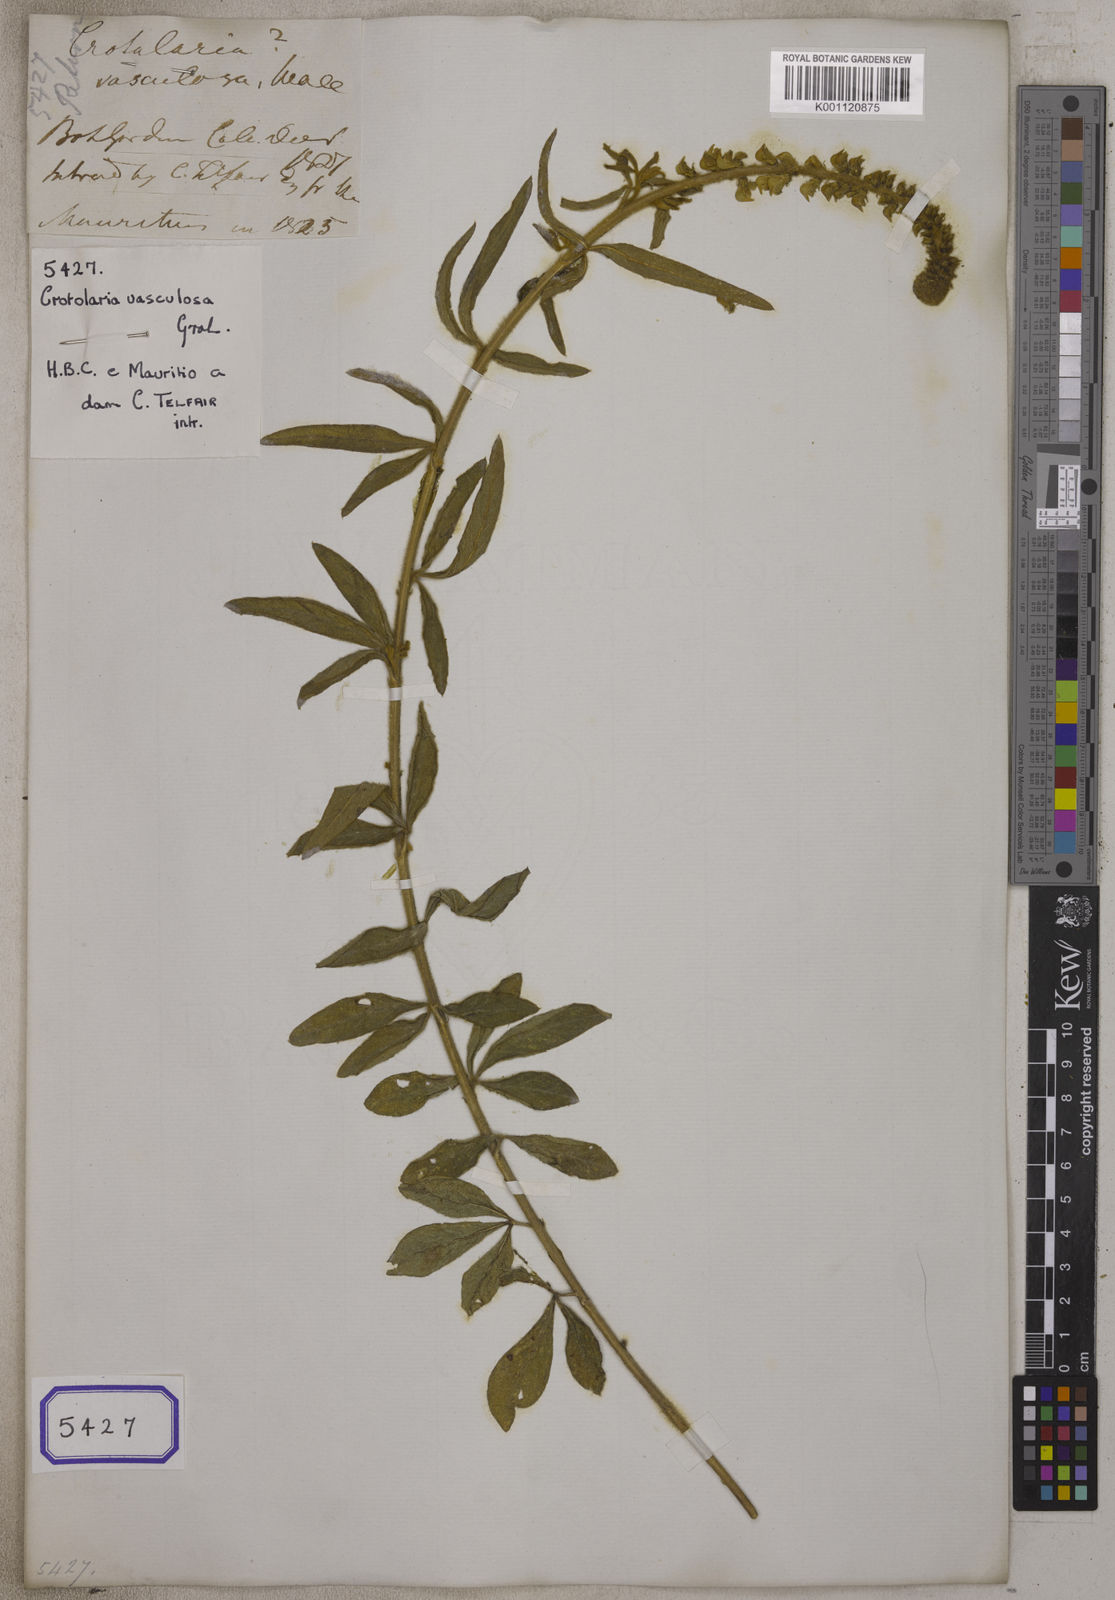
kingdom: Plantae
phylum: Tracheophyta
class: Magnoliopsida
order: Fabales
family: Fabaceae
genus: Crotalaria
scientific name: Crotalaria
